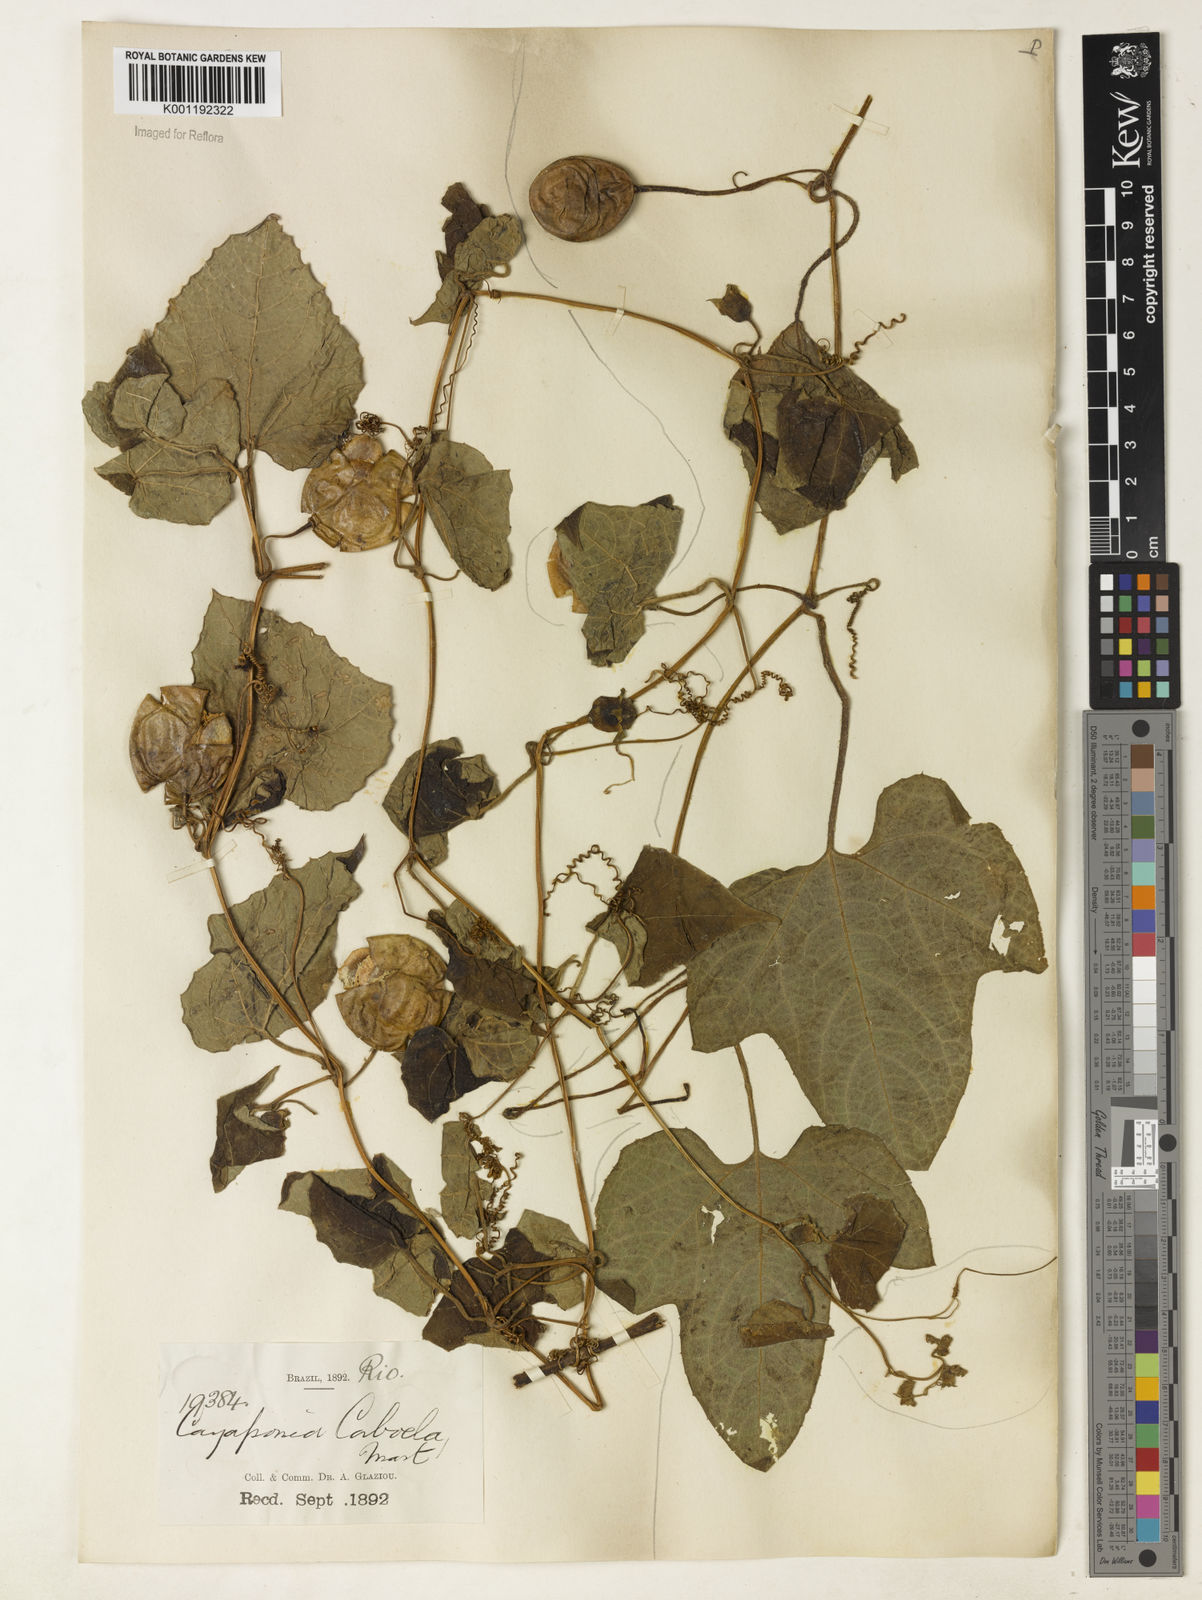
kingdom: Plantae
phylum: Tracheophyta
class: Magnoliopsida
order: Cucurbitales
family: Cucurbitaceae
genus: Cayaponia
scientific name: Cayaponia cabocla
